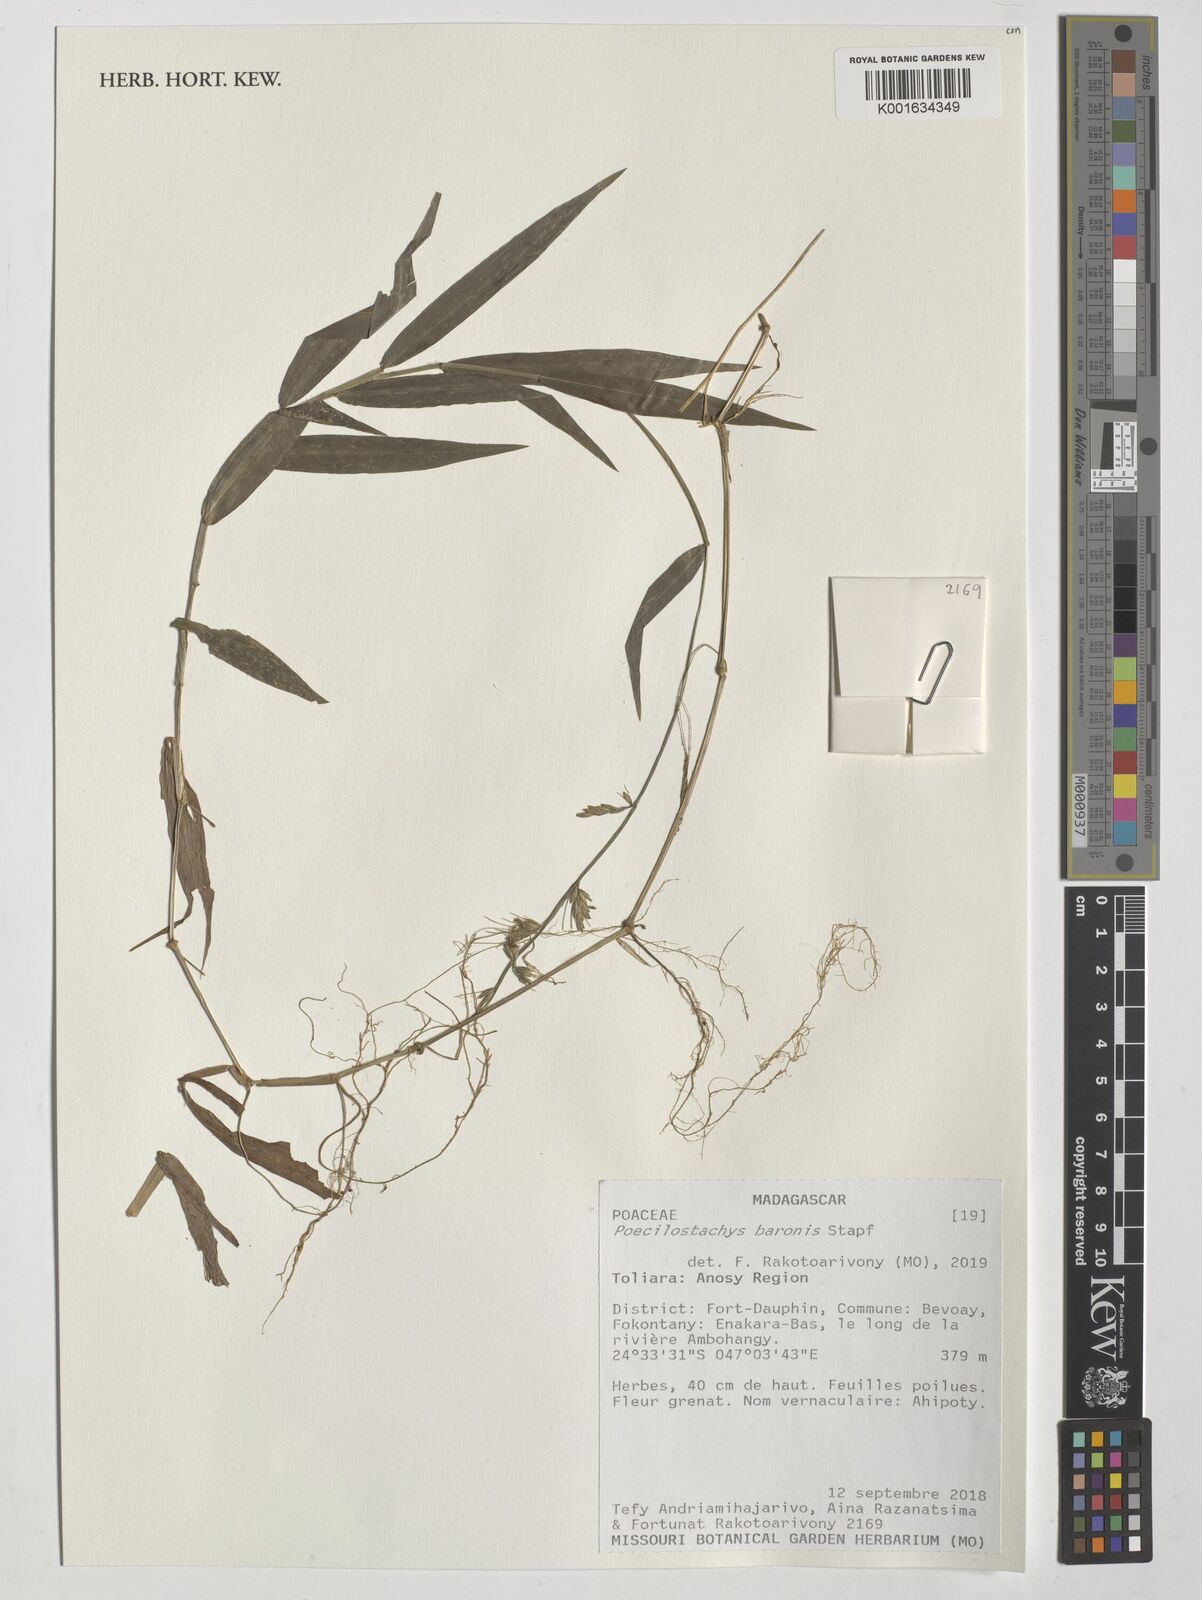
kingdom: Plantae
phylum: Tracheophyta
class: Liliopsida
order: Poales
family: Poaceae
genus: Poecilostachys
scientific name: Poecilostachys baronis
